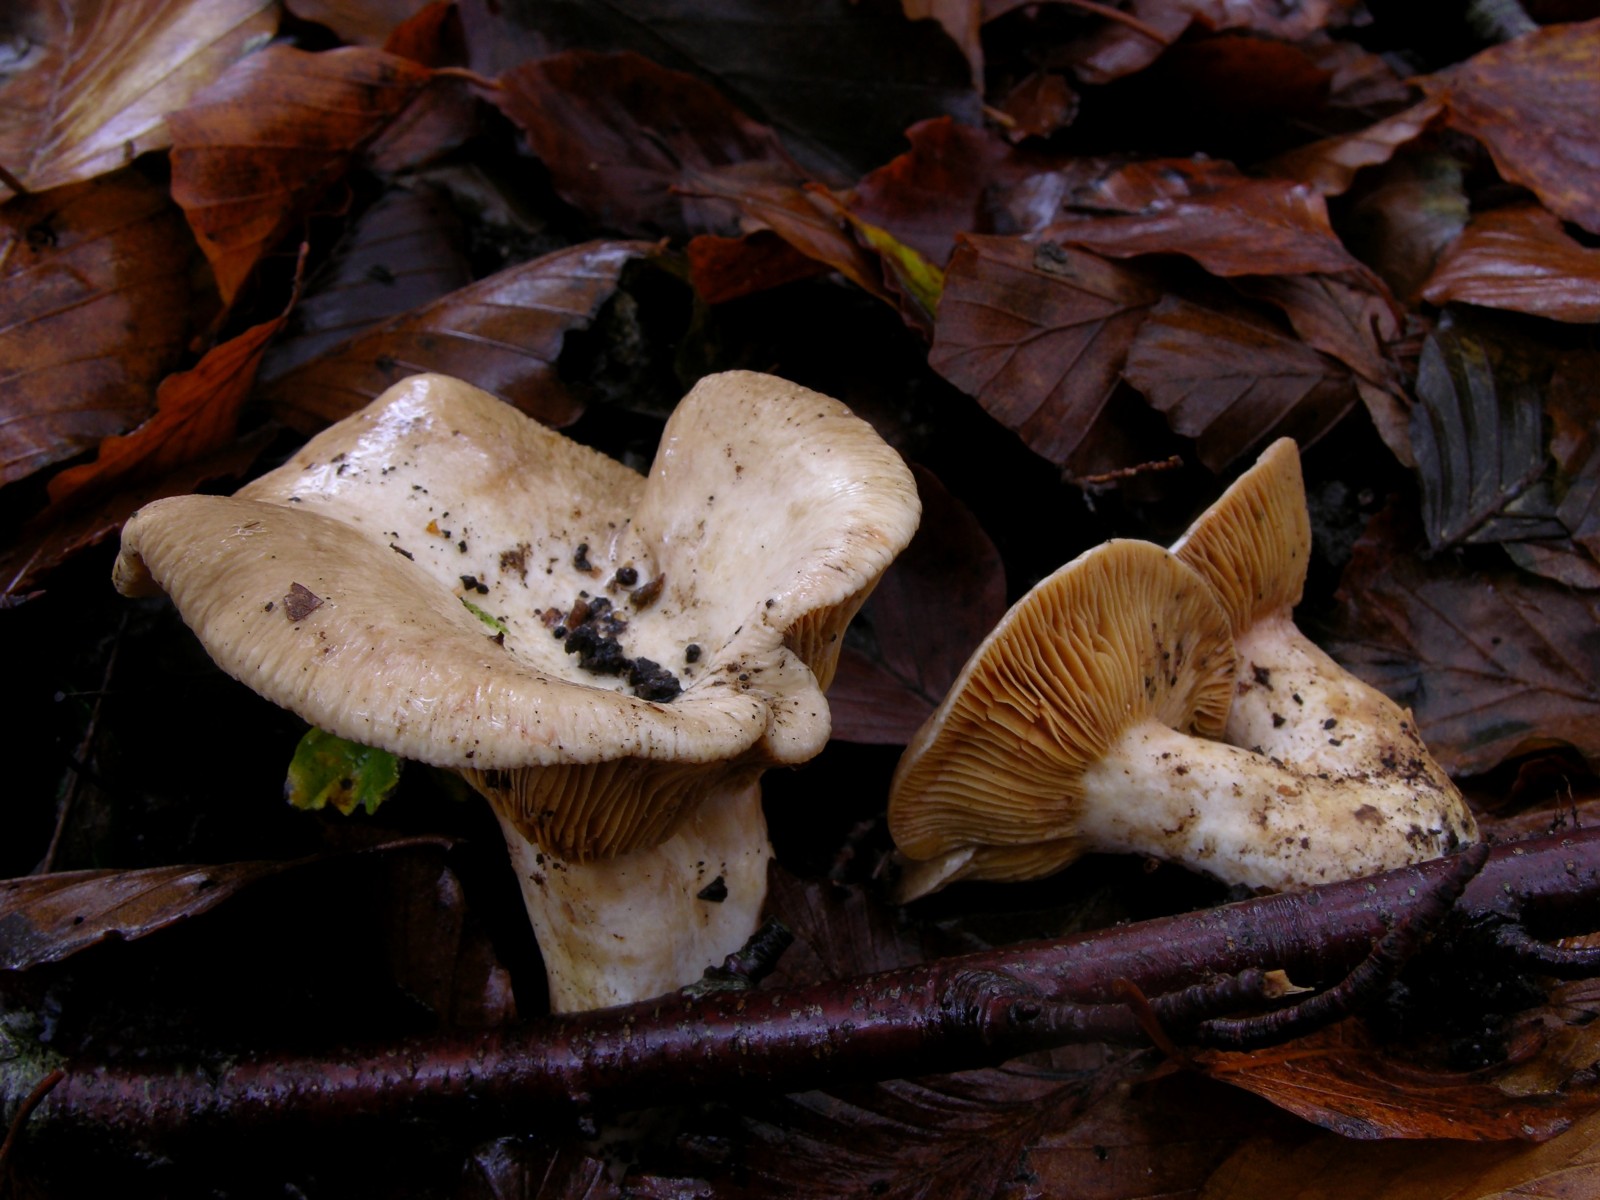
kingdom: Fungi
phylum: Basidiomycota
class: Agaricomycetes
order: Russulales
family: Russulaceae
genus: Lactarius
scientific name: Lactarius pterosporus
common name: vingesporet mælkehat
